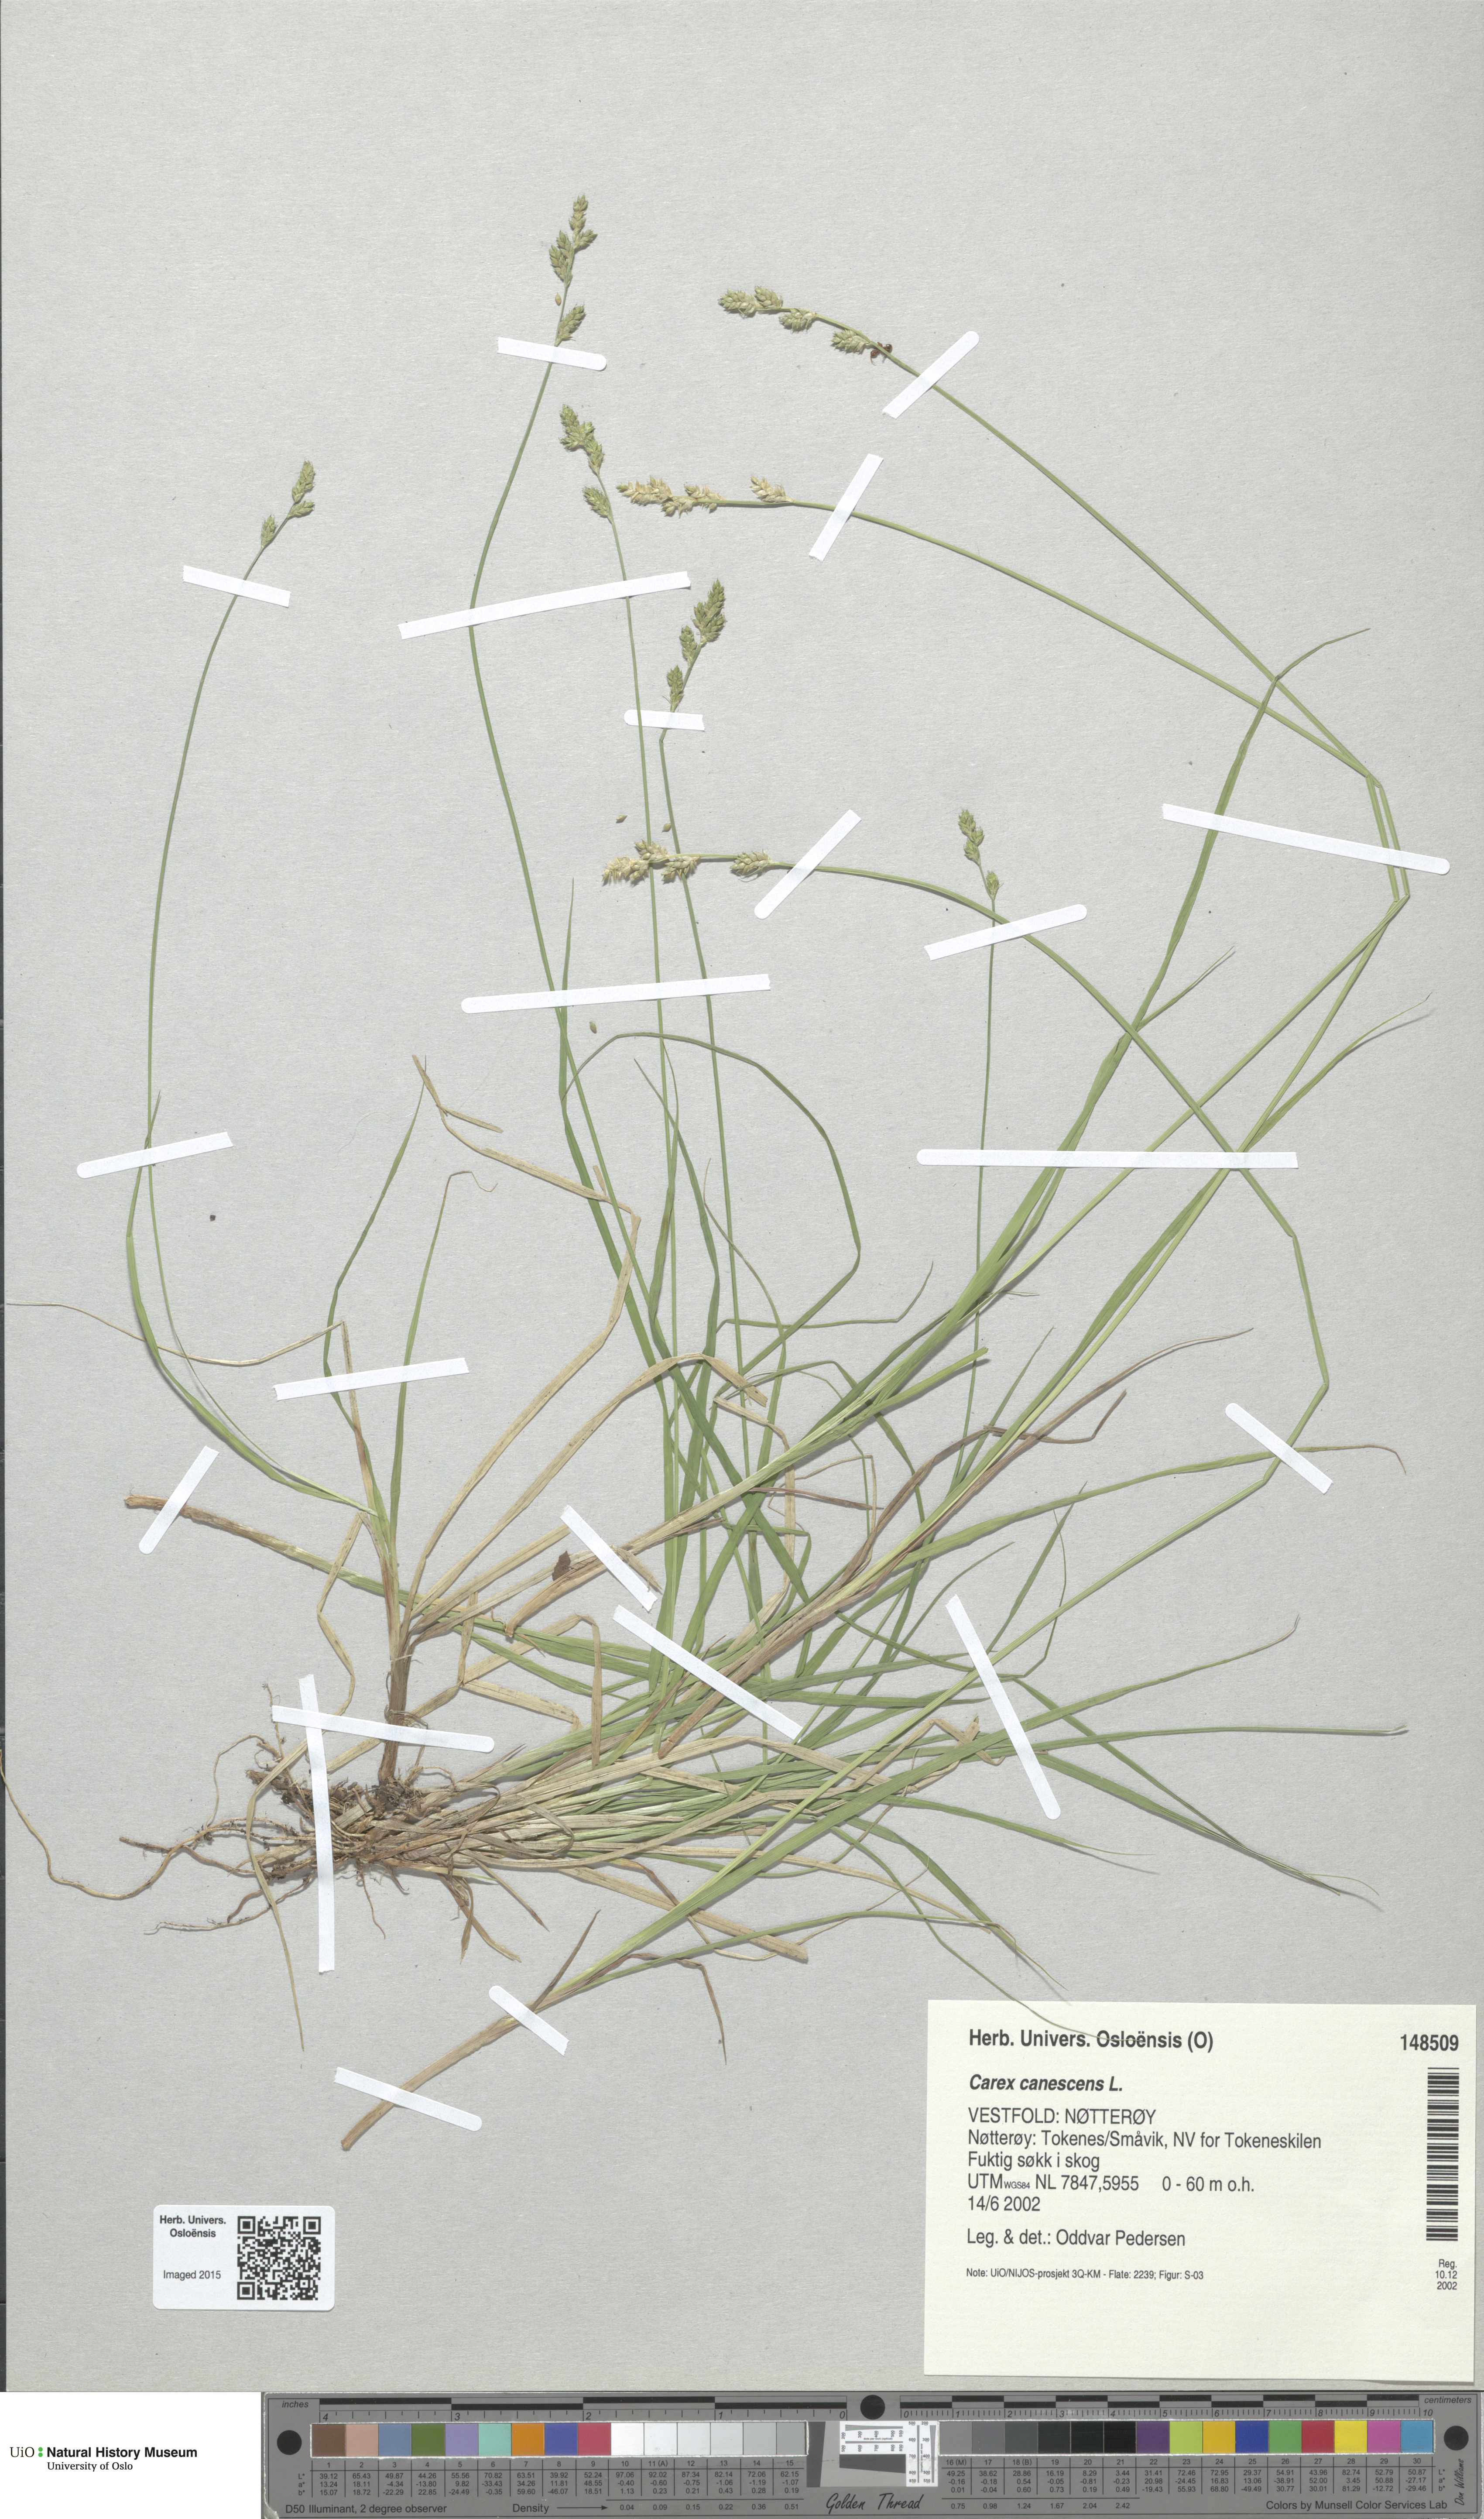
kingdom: Plantae
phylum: Tracheophyta
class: Liliopsida
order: Poales
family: Cyperaceae
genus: Carex
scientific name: Carex canescens
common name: White sedge
